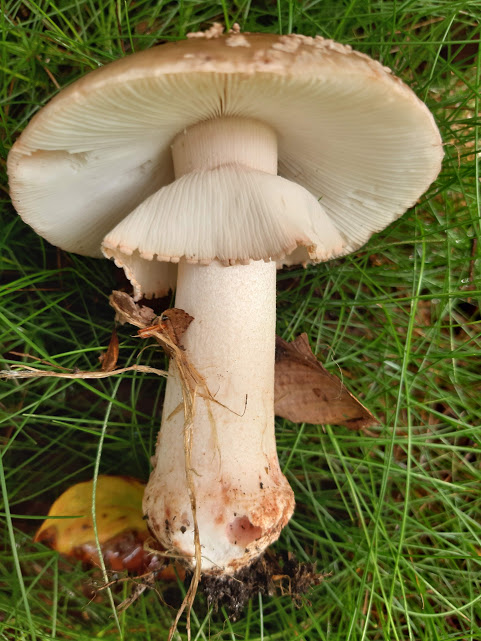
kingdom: Fungi
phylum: Basidiomycota
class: Agaricomycetes
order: Agaricales
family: Amanitaceae
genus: Amanita
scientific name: Amanita rubescens
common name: rødmende fluesvamp
